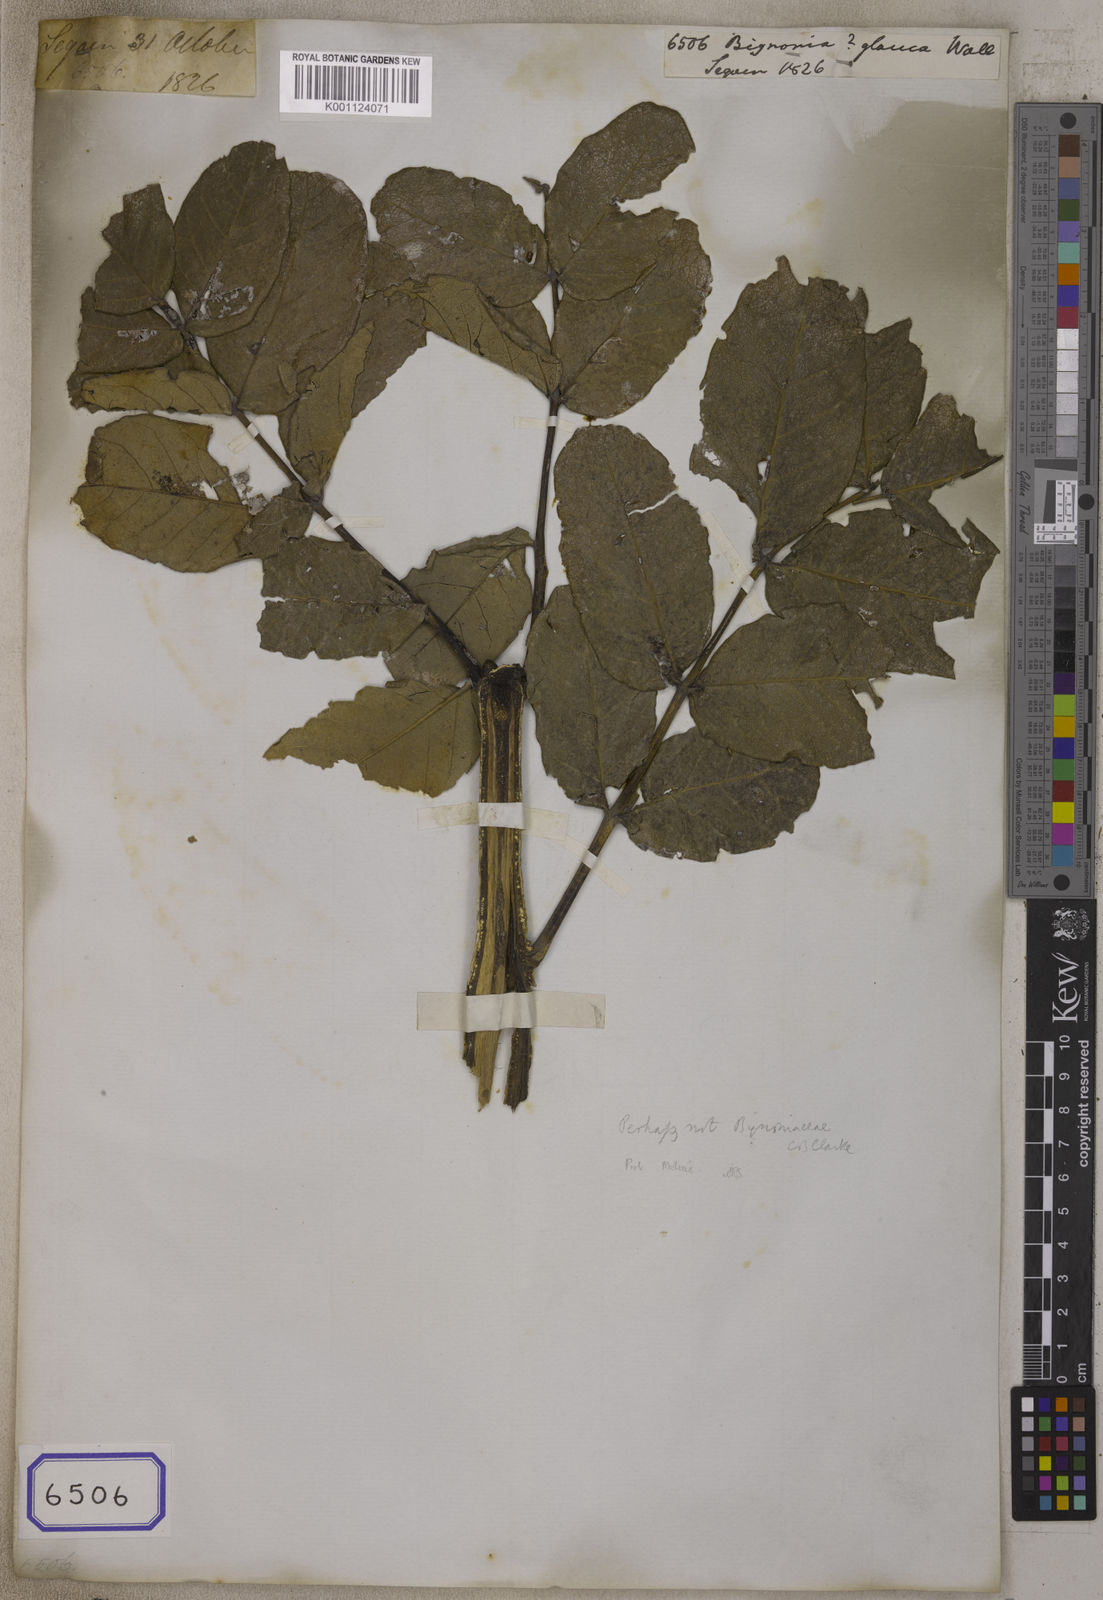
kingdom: Plantae
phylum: Tracheophyta
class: Magnoliopsida
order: Lamiales
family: Bignoniaceae
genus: Bignonia
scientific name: Bignonia
